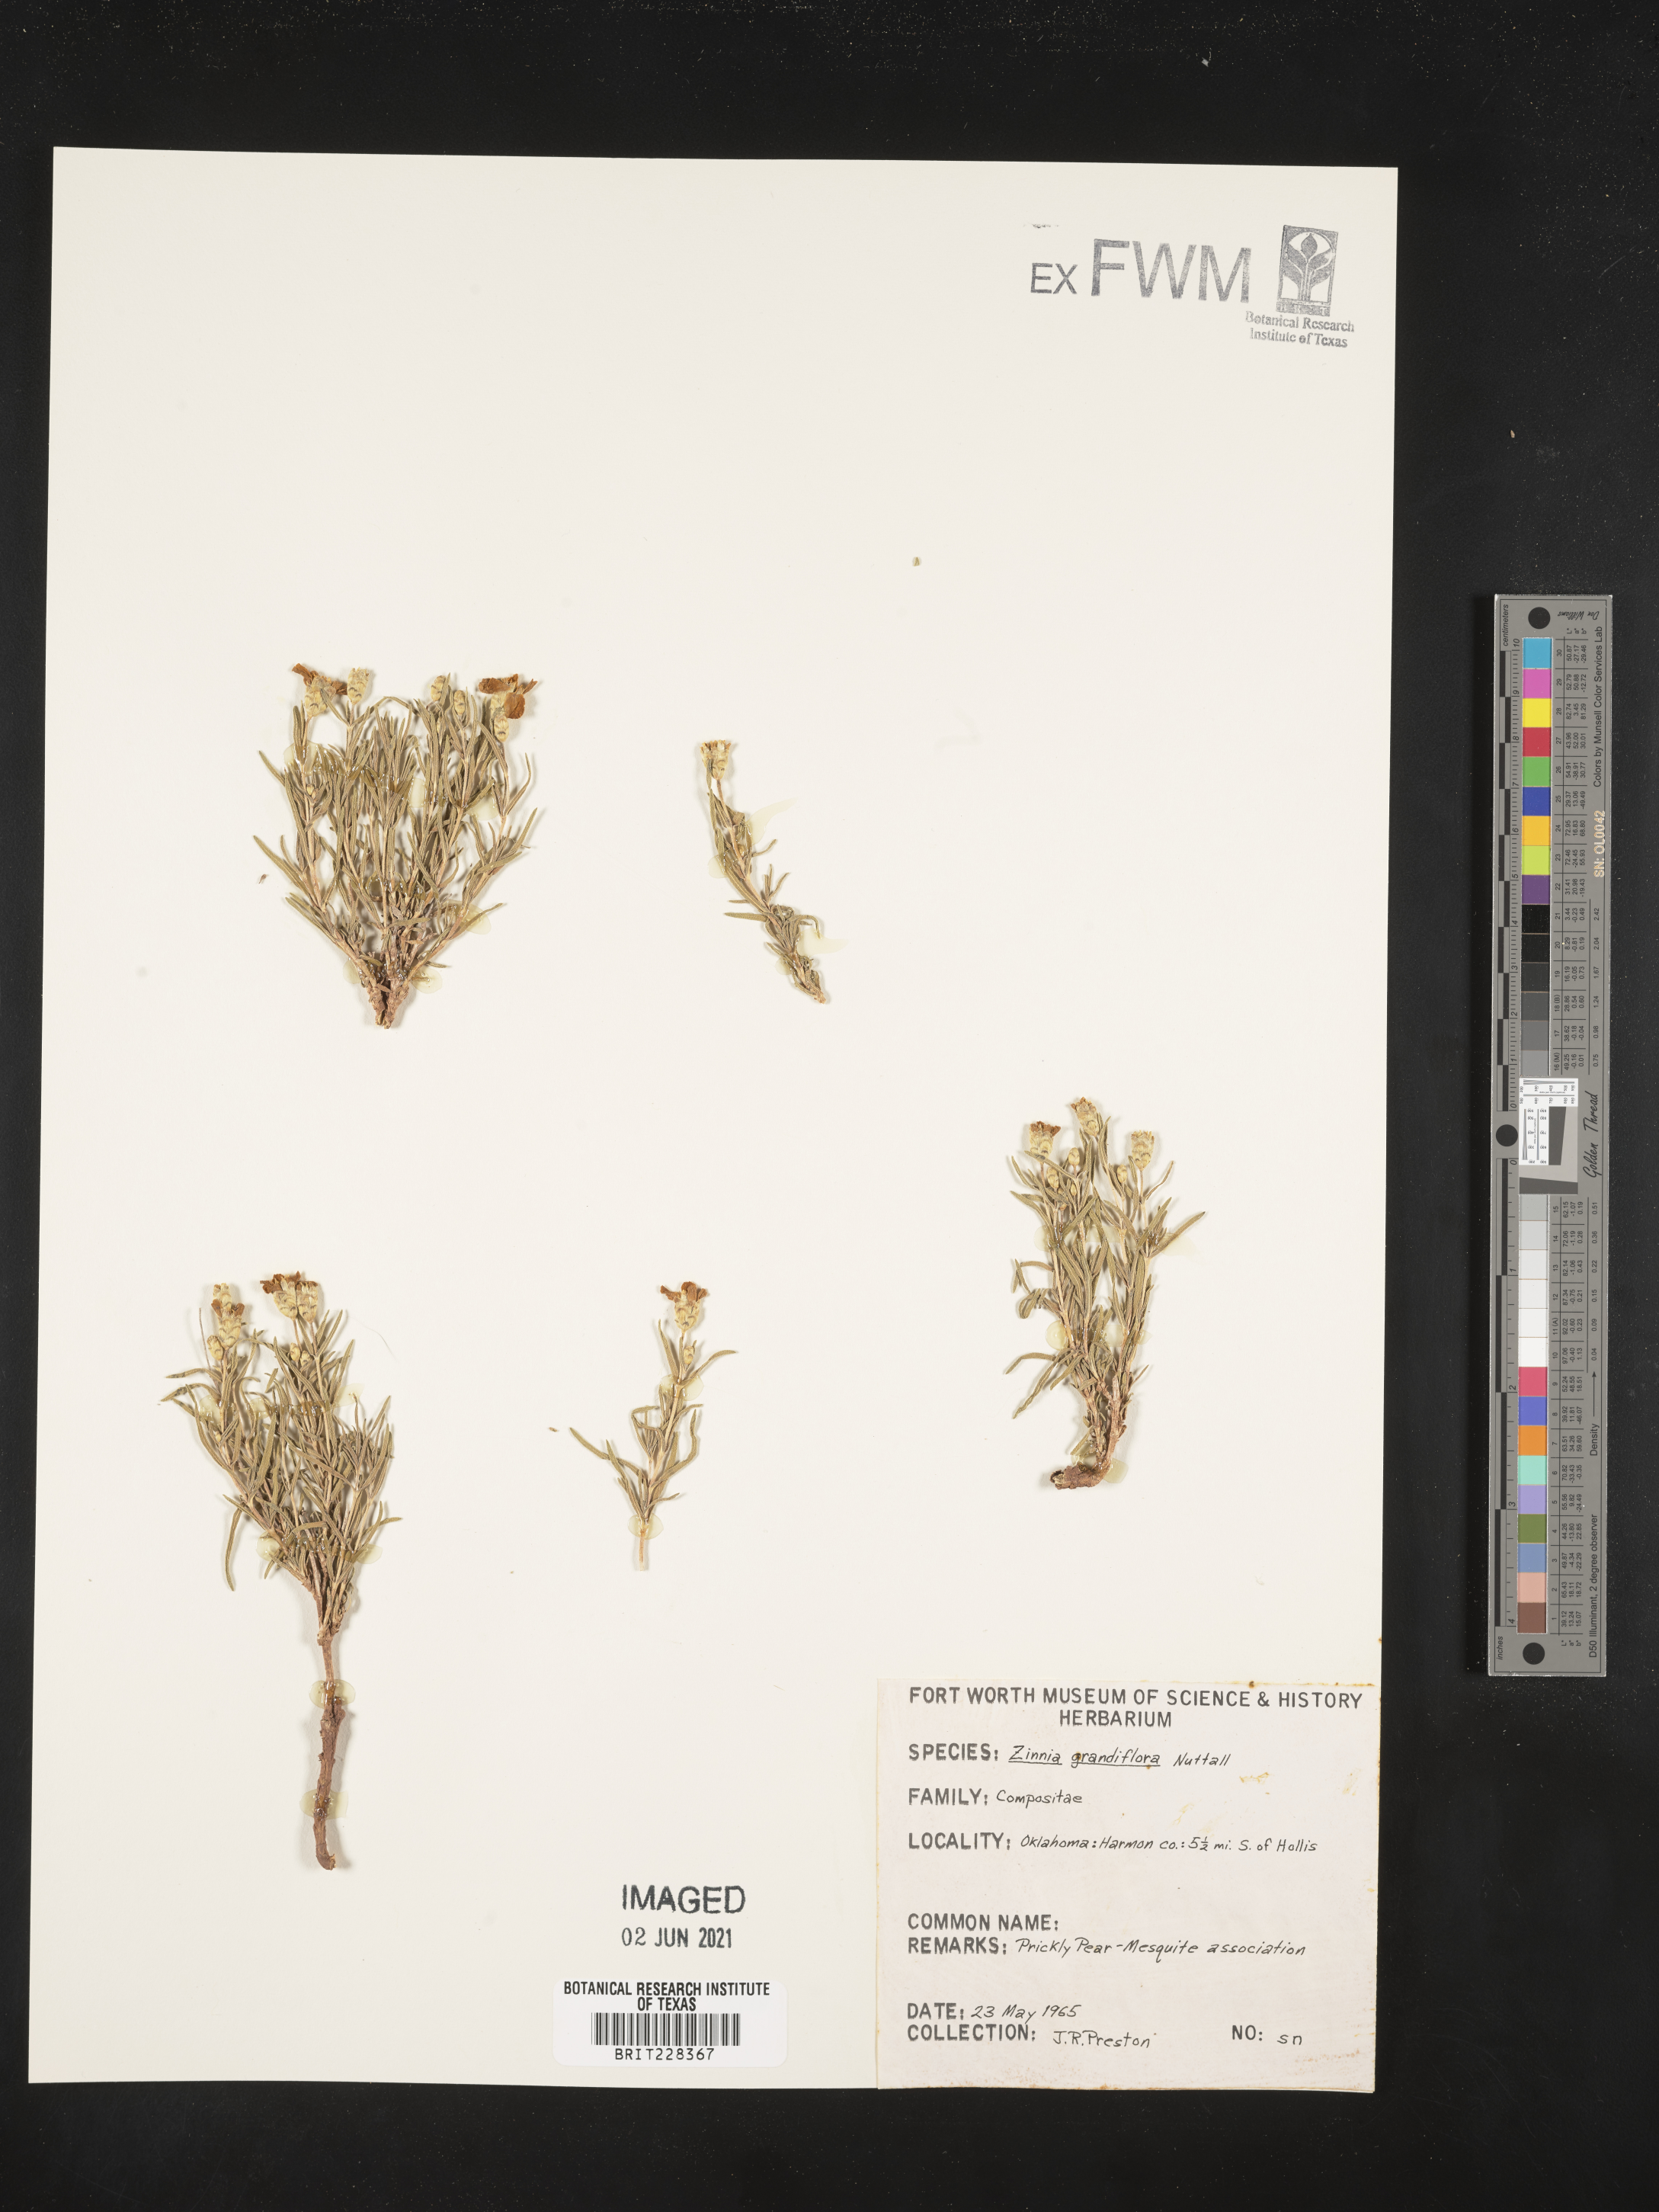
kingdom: Plantae
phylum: Tracheophyta
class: Magnoliopsida
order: Asterales
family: Asteraceae
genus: Zinnia
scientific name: Zinnia grandiflora
